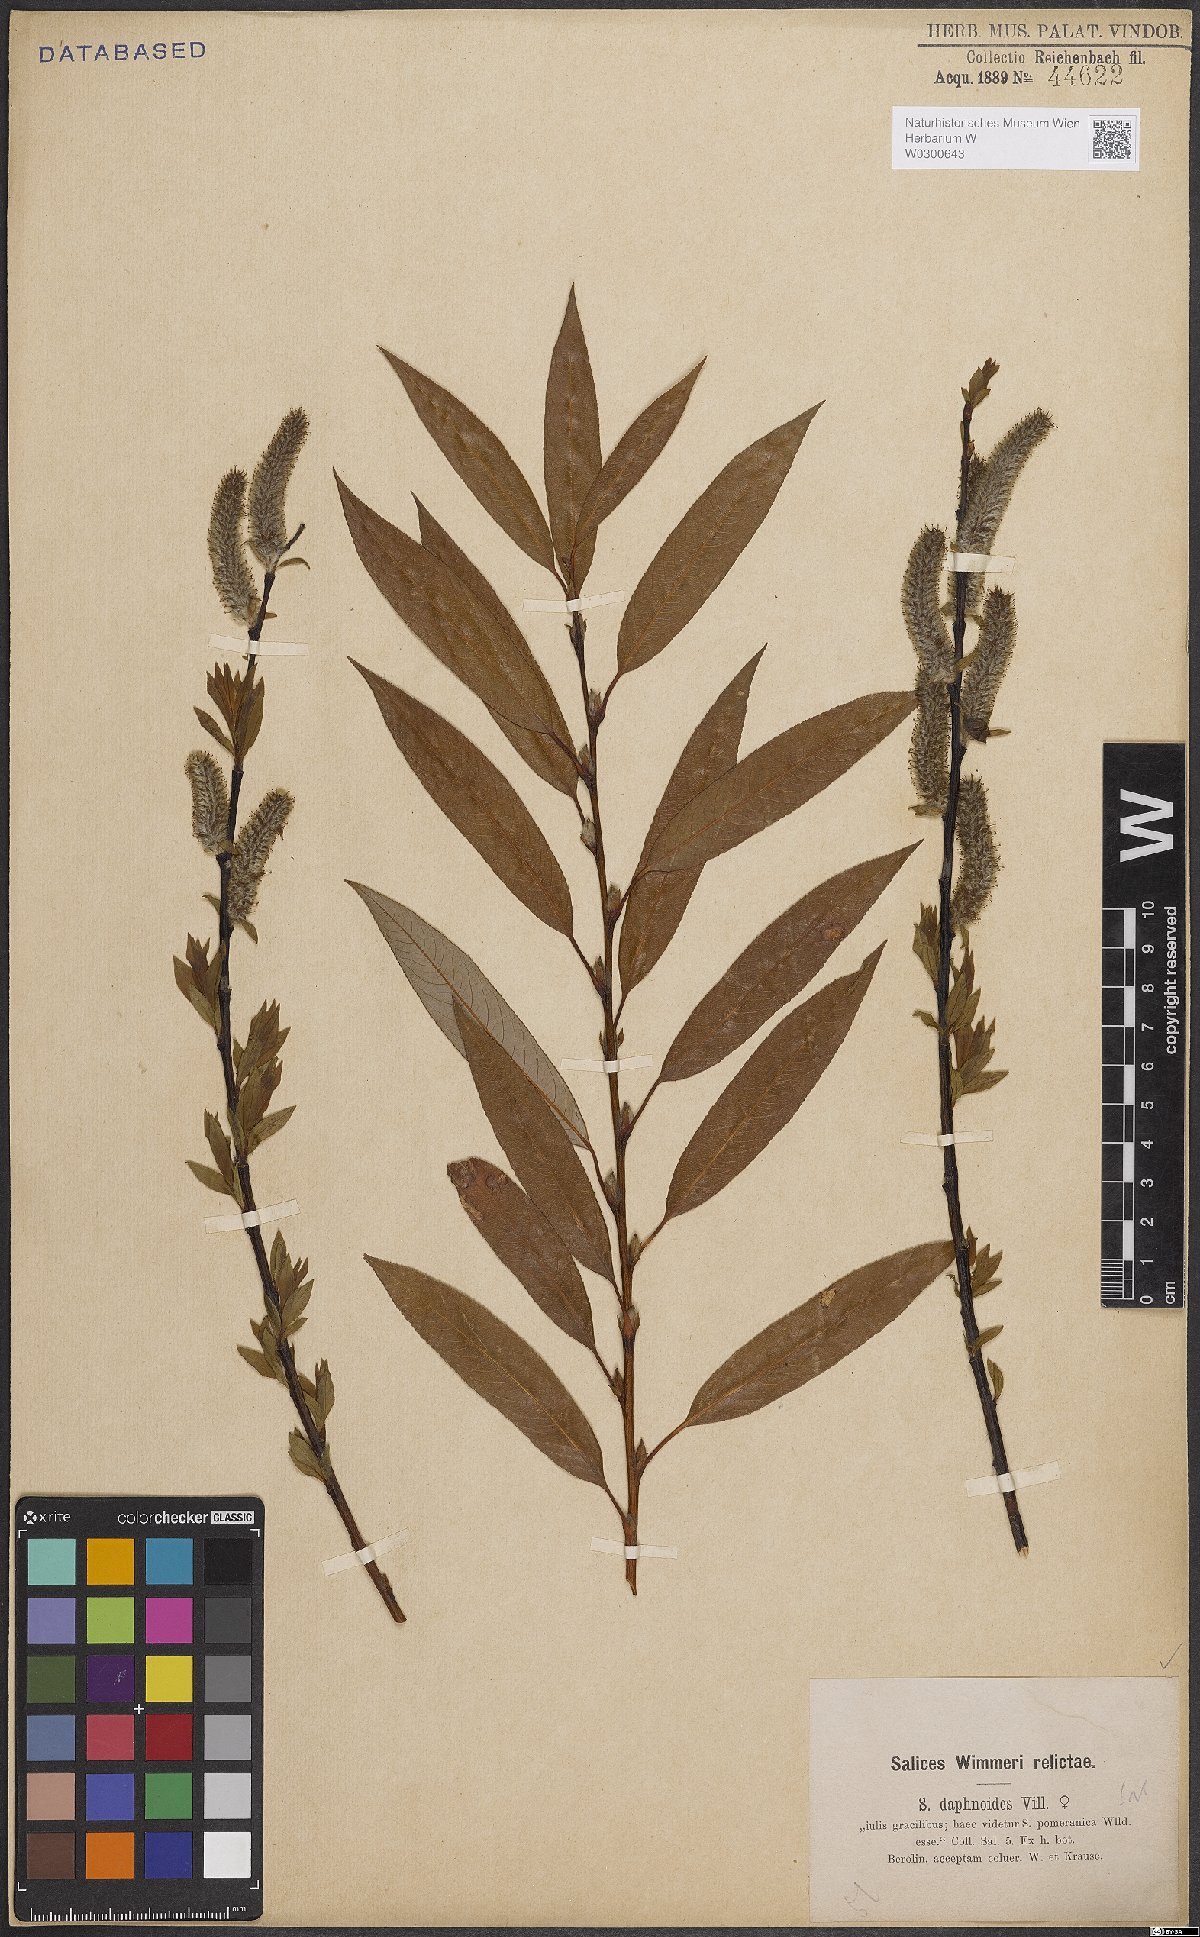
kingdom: Plantae
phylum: Tracheophyta
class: Magnoliopsida
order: Malpighiales
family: Salicaceae
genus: Salix
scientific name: Salix daphnoides
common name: European violet-willow
